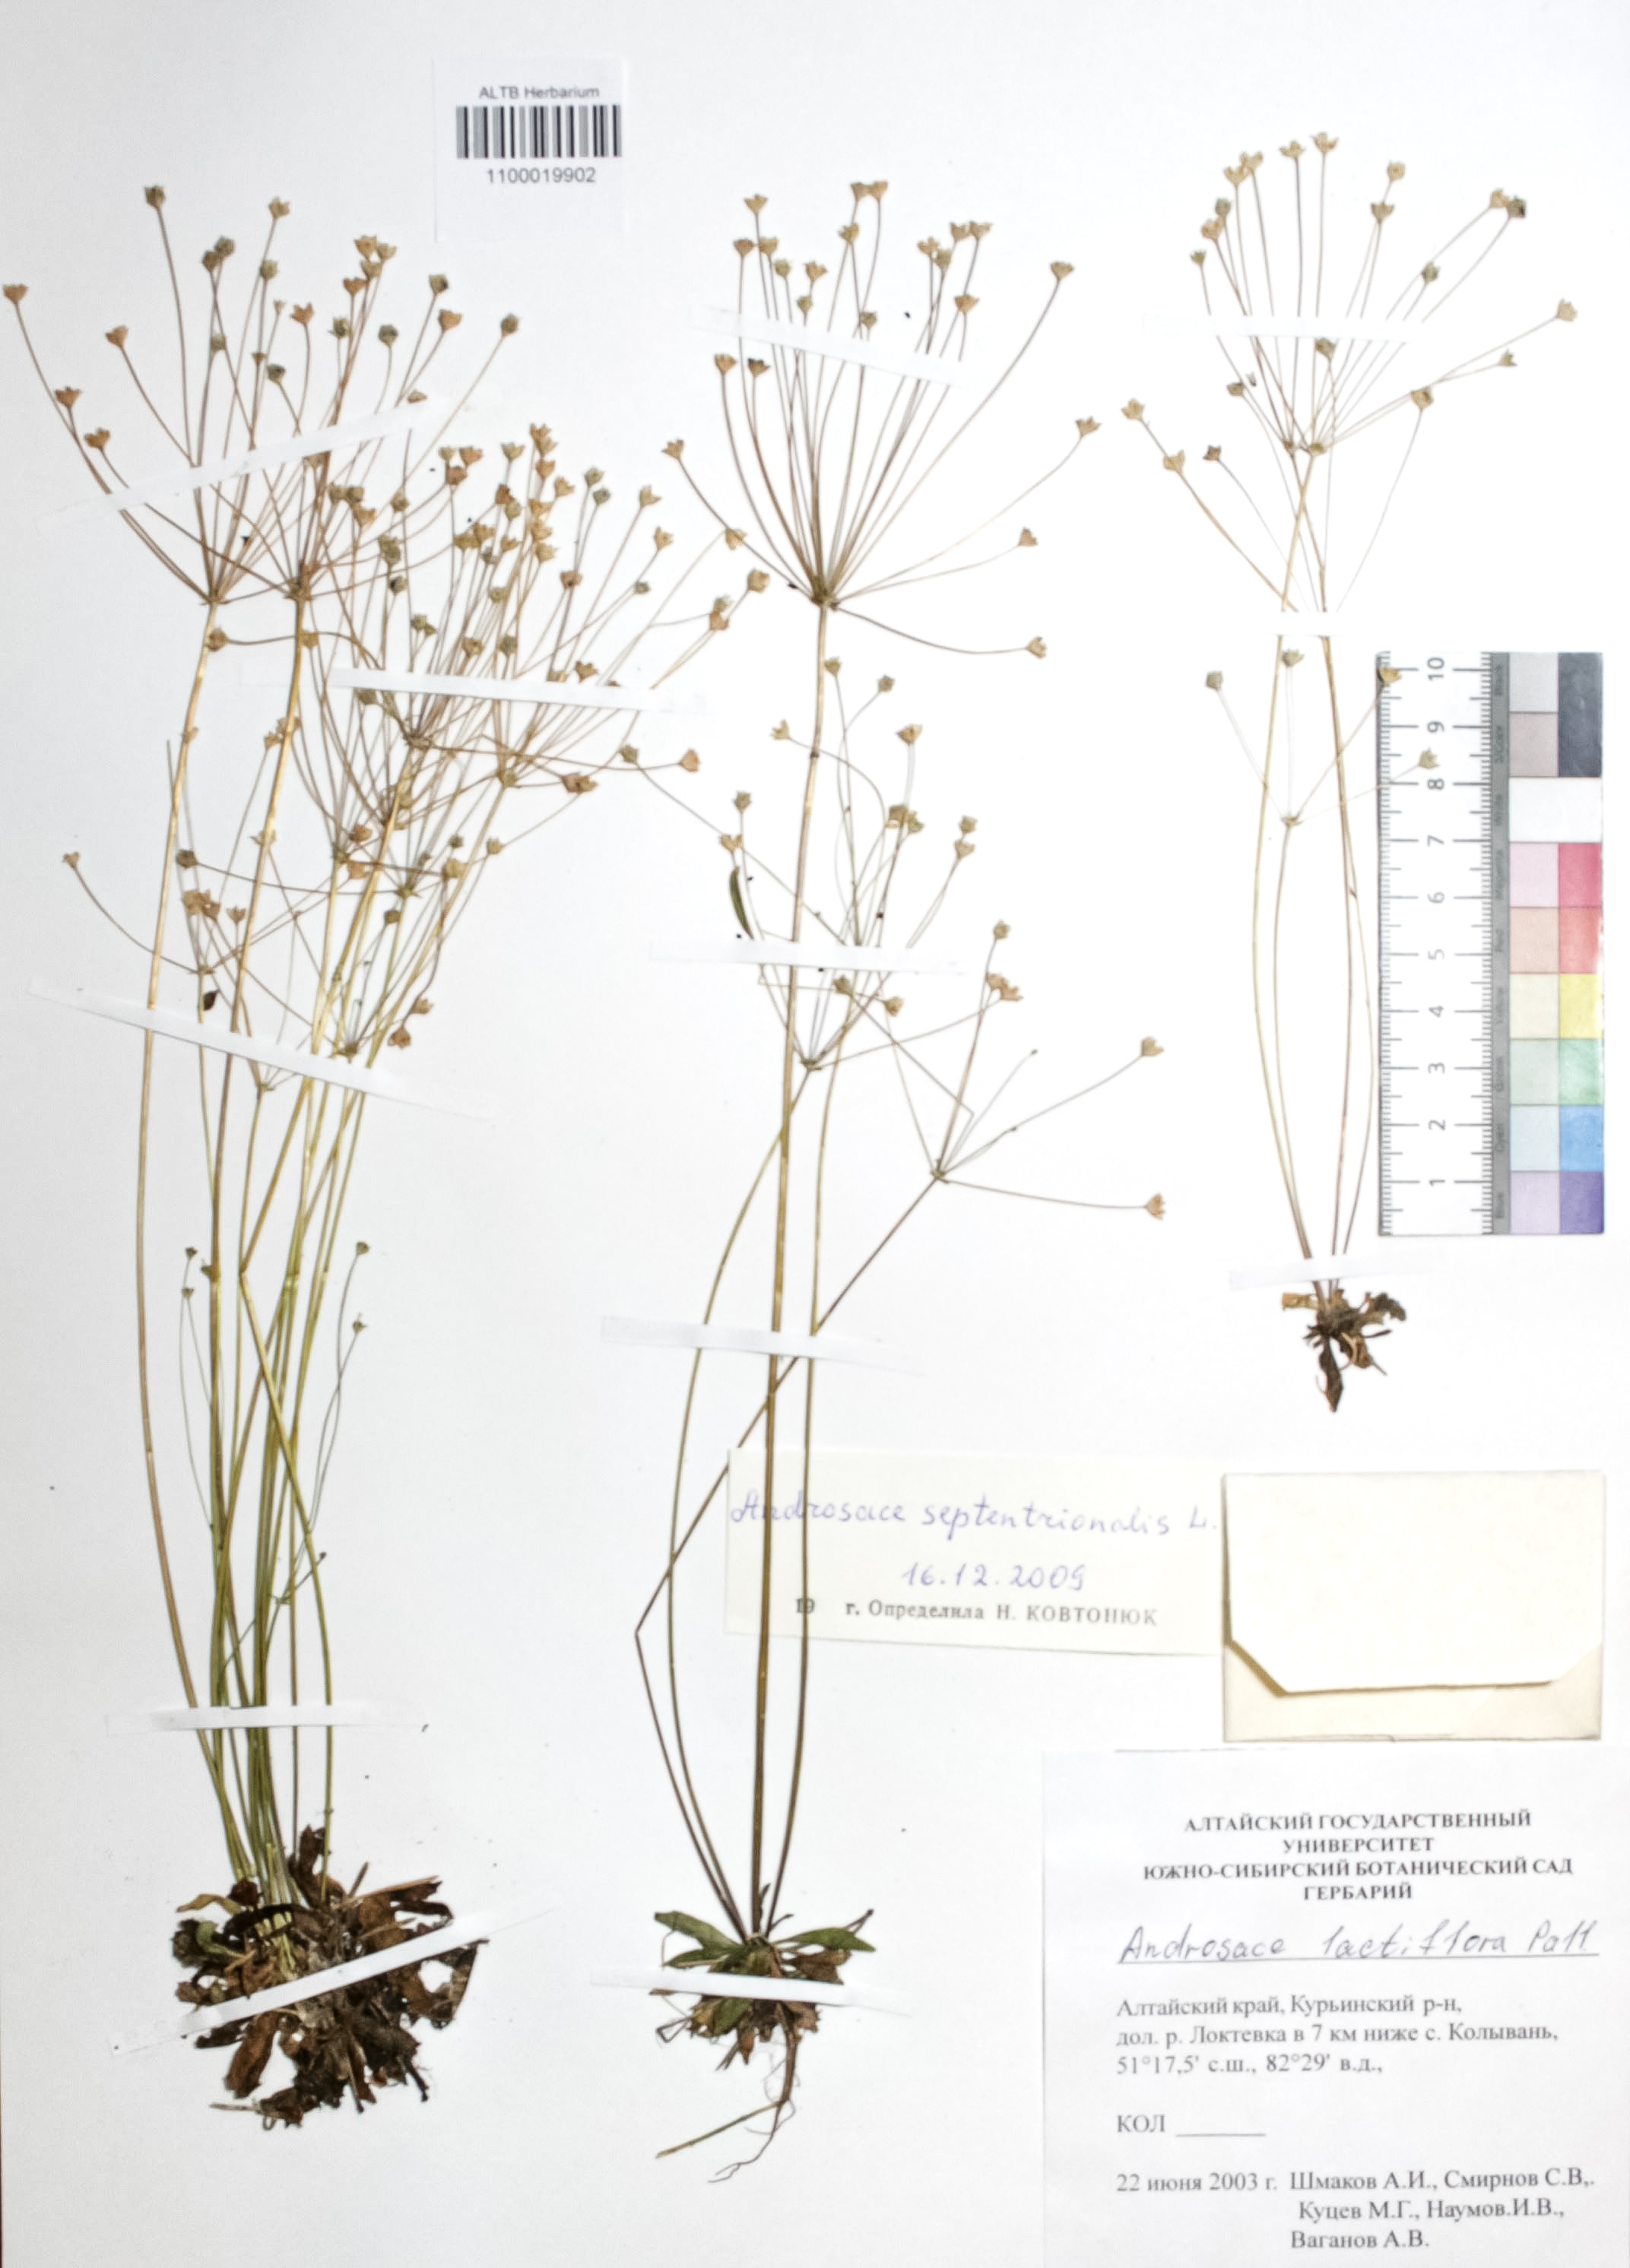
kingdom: Plantae
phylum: Tracheophyta
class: Magnoliopsida
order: Ericales
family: Primulaceae
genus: Androsace
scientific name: Androsace septentrionalis
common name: Hairy northern fairy-candelabra
